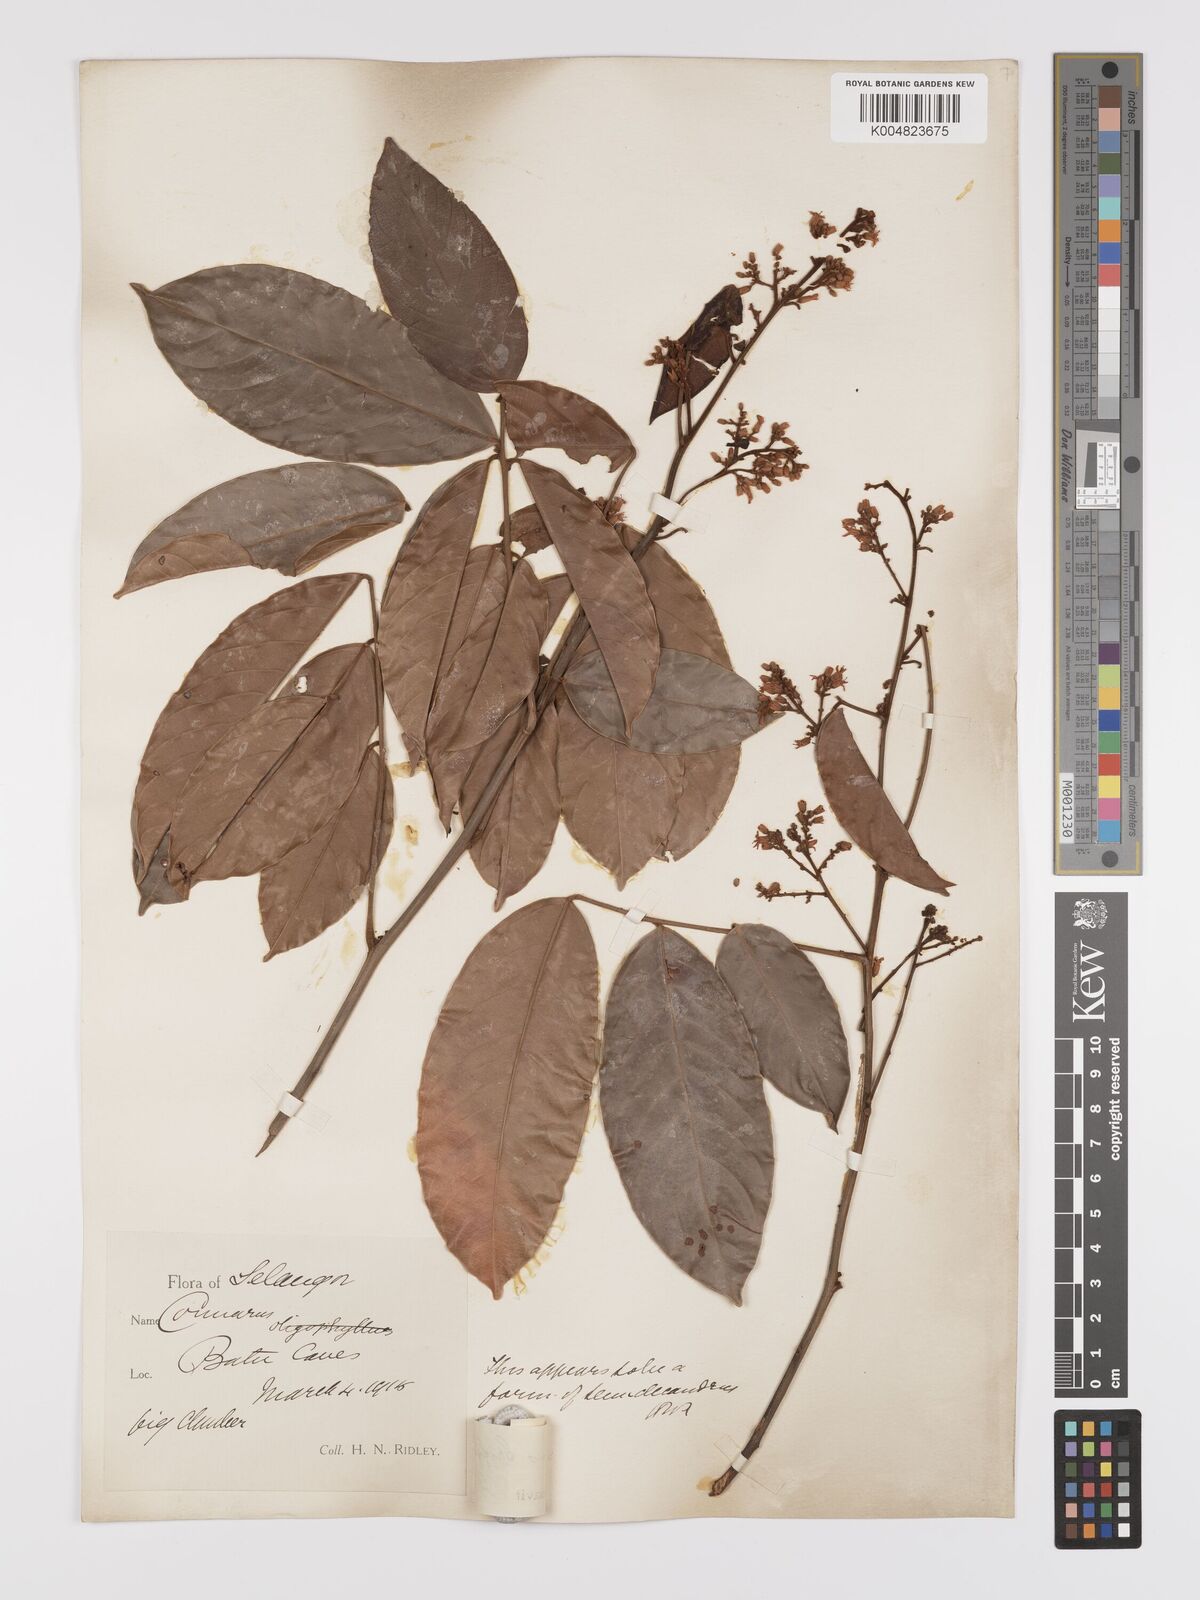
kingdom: Plantae
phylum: Tracheophyta
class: Magnoliopsida
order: Oxalidales
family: Connaraceae
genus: Connarus
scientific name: Connarus semidecandrus
